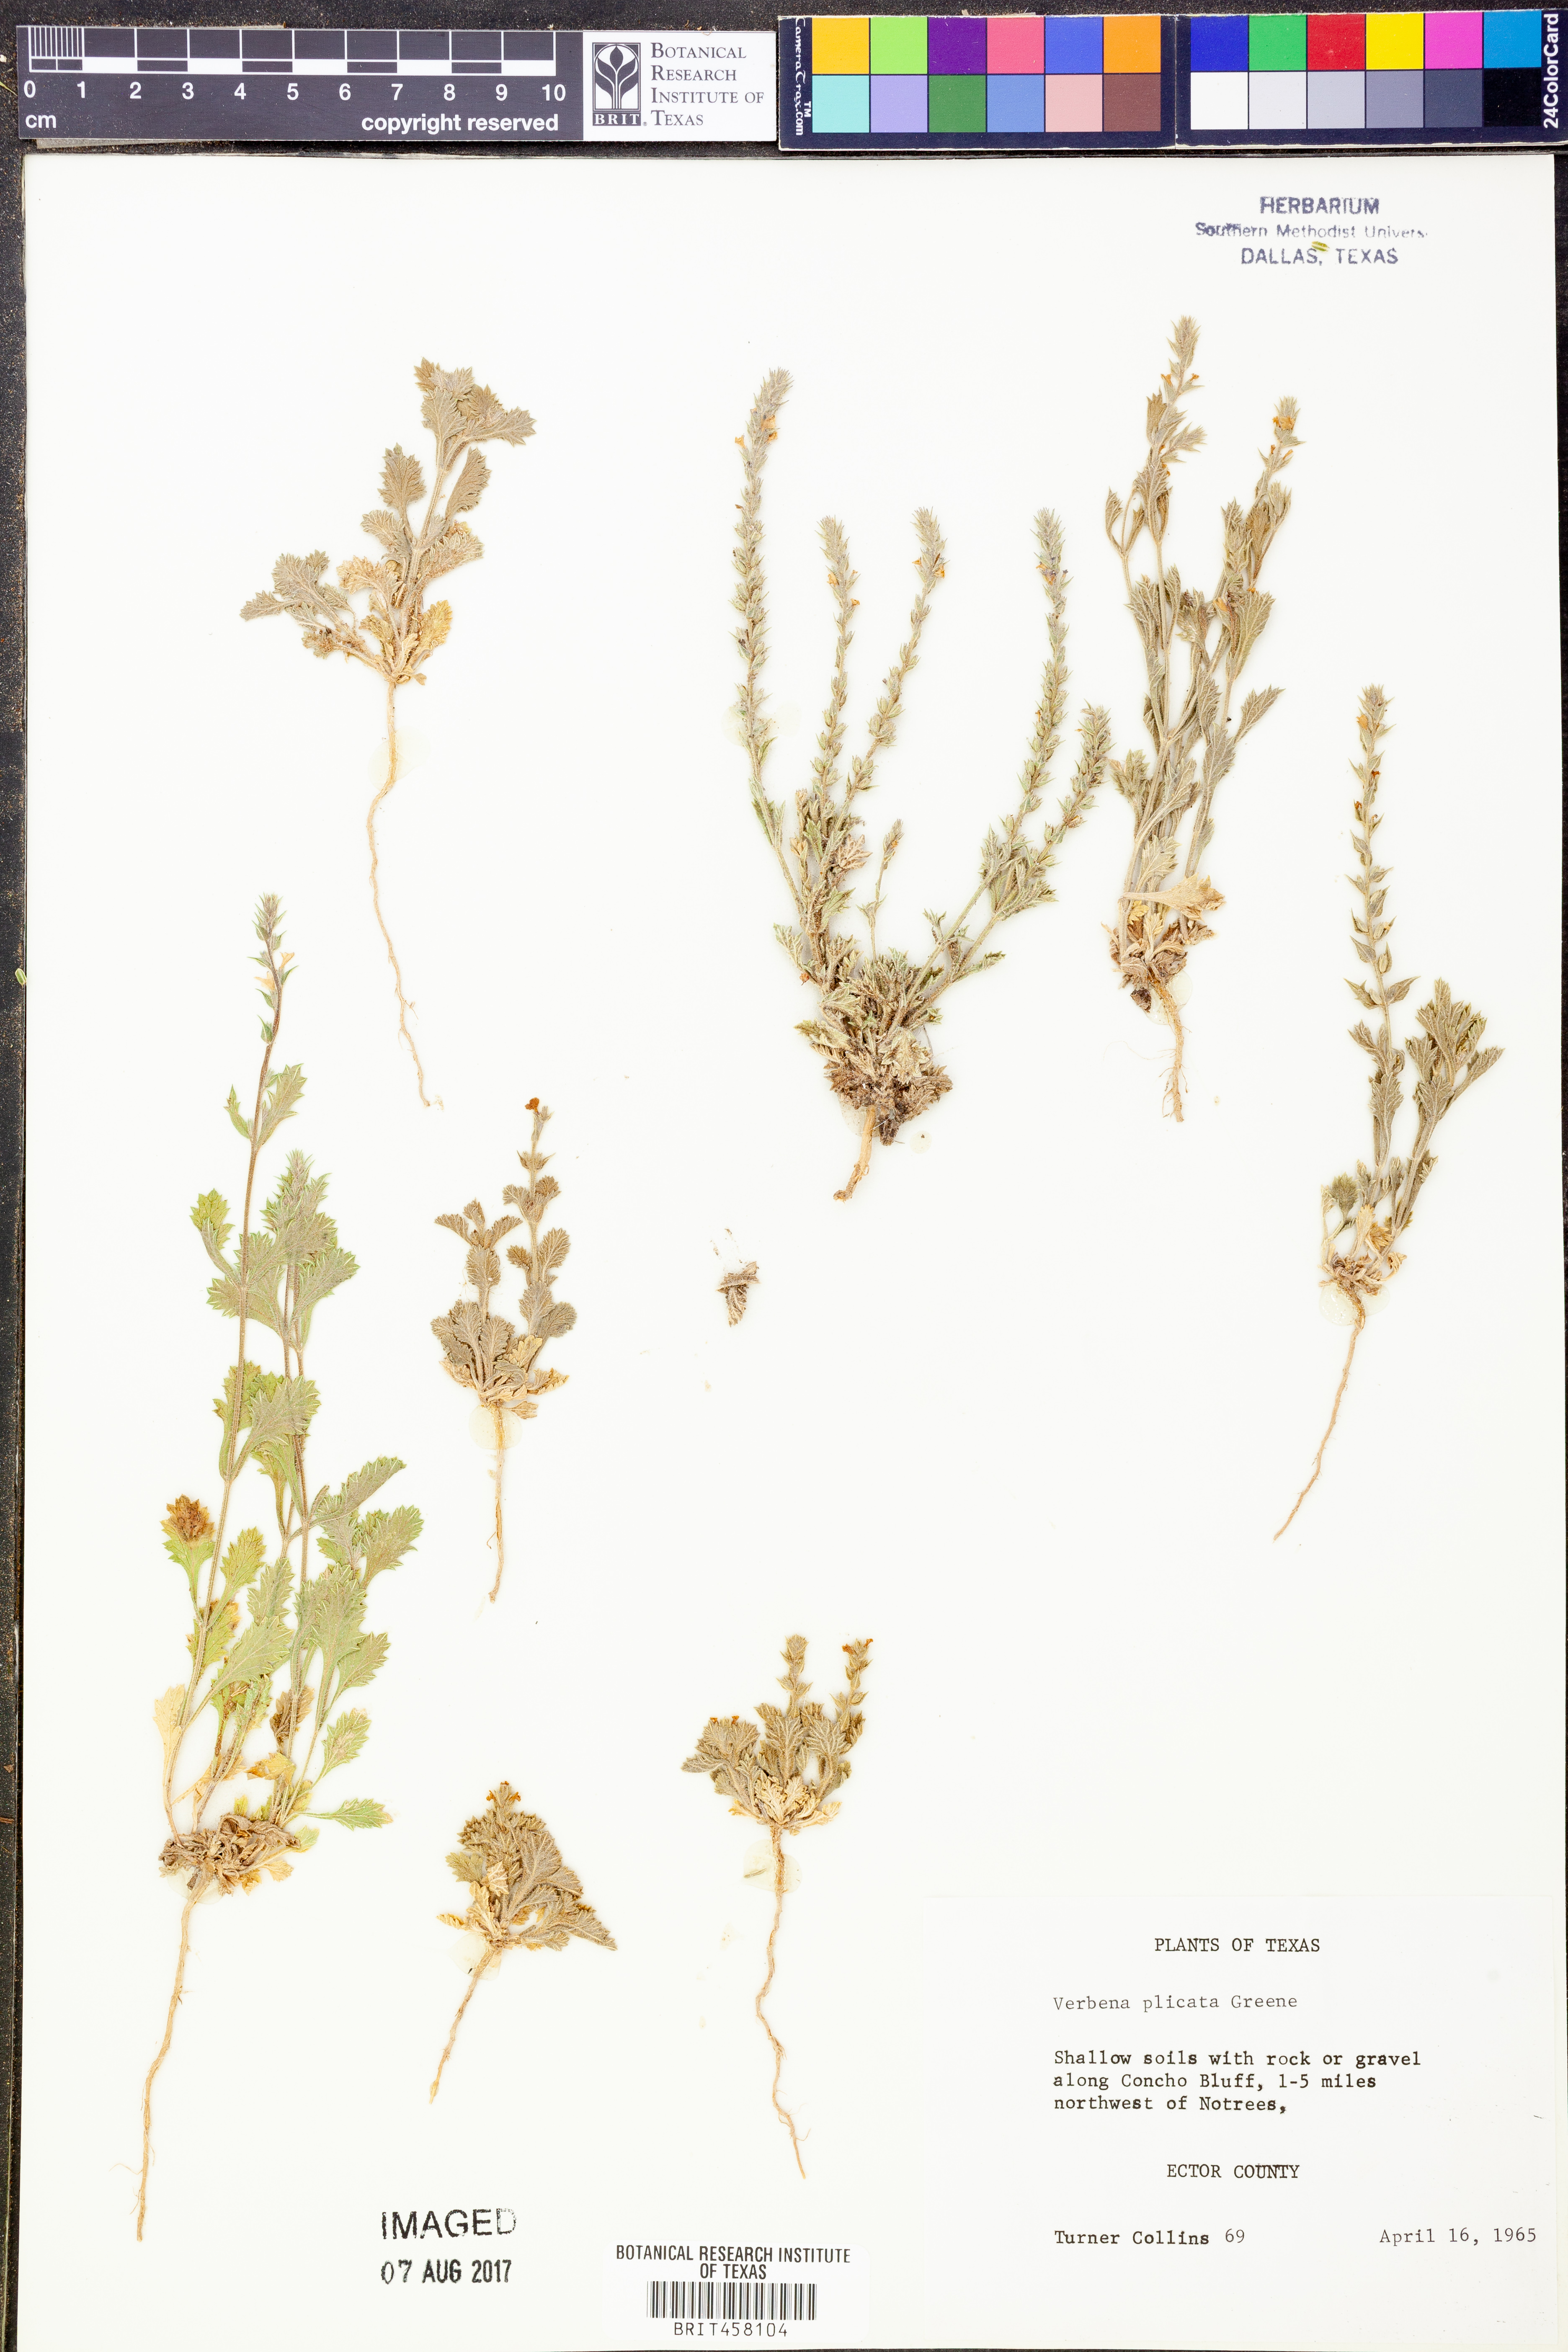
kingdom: Plantae
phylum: Tracheophyta
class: Magnoliopsida
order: Lamiales
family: Verbenaceae
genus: Verbena
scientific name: Verbena plicata
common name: Fan-leaf vervain
